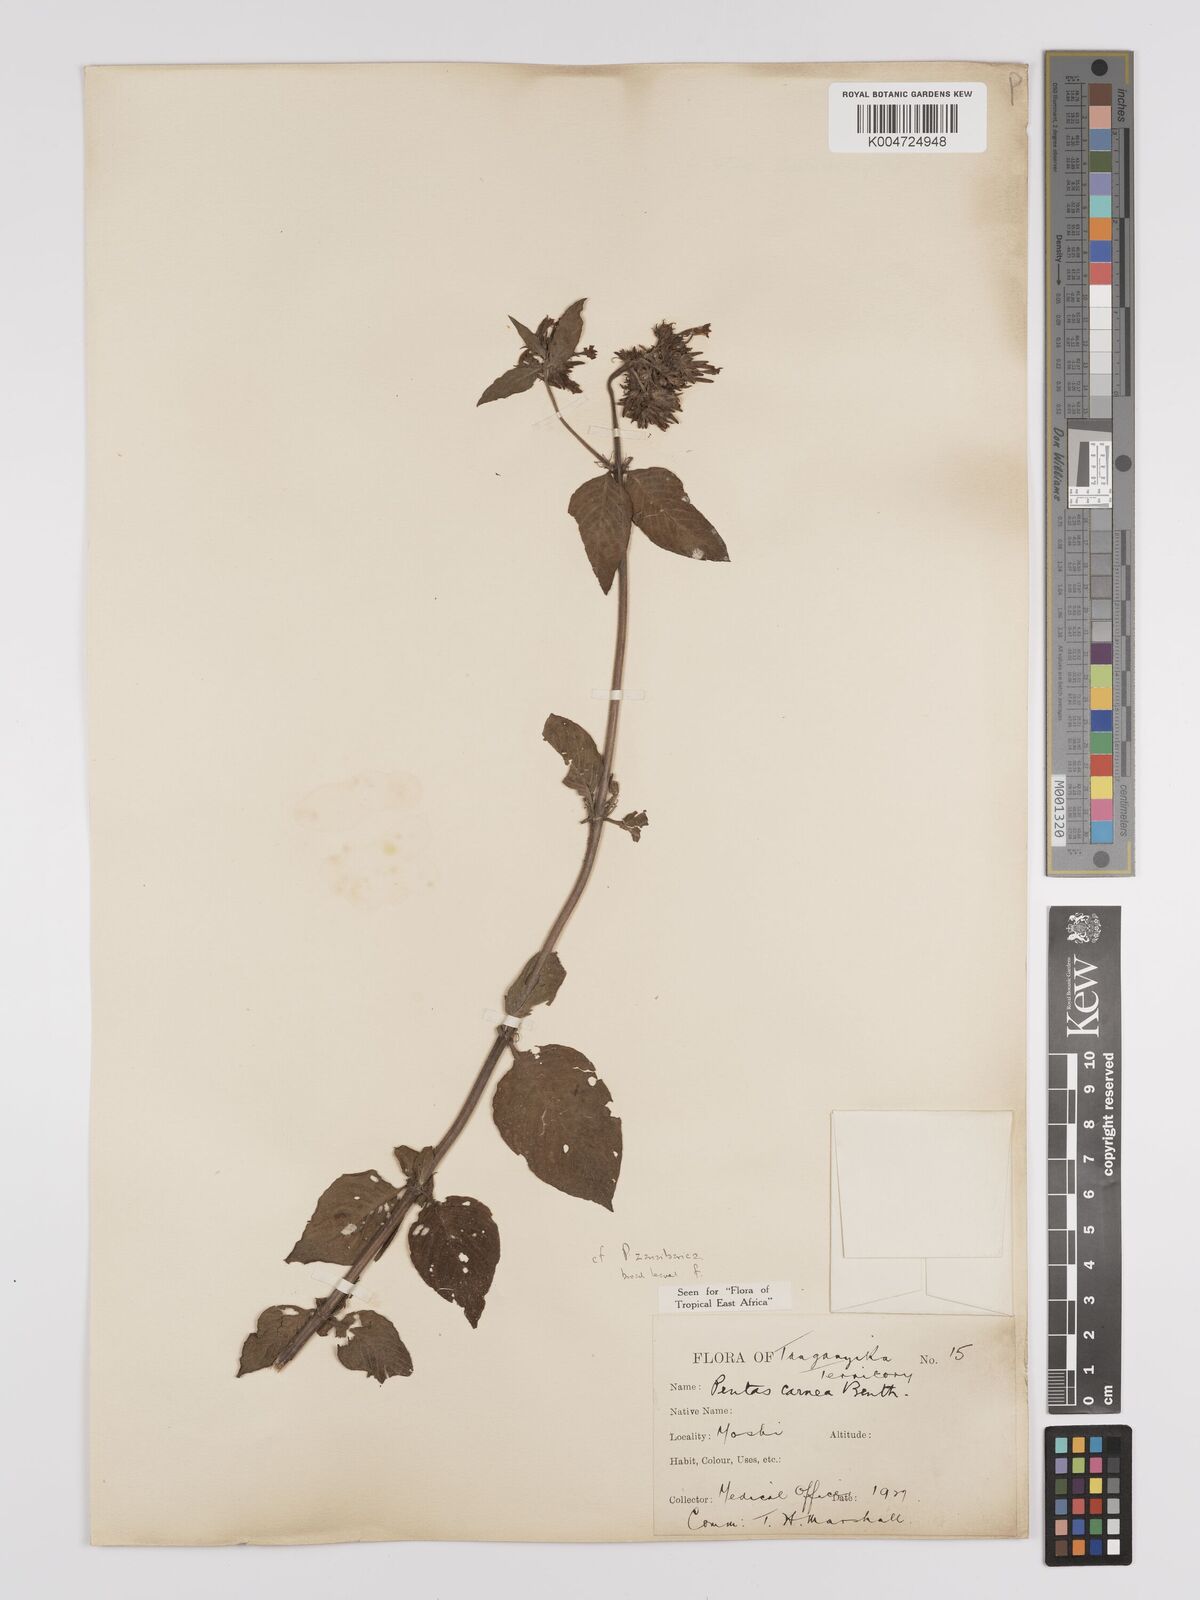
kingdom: Plantae
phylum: Tracheophyta
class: Magnoliopsida
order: Gentianales
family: Rubiaceae
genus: Pentas
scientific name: Pentas zanzibarica
